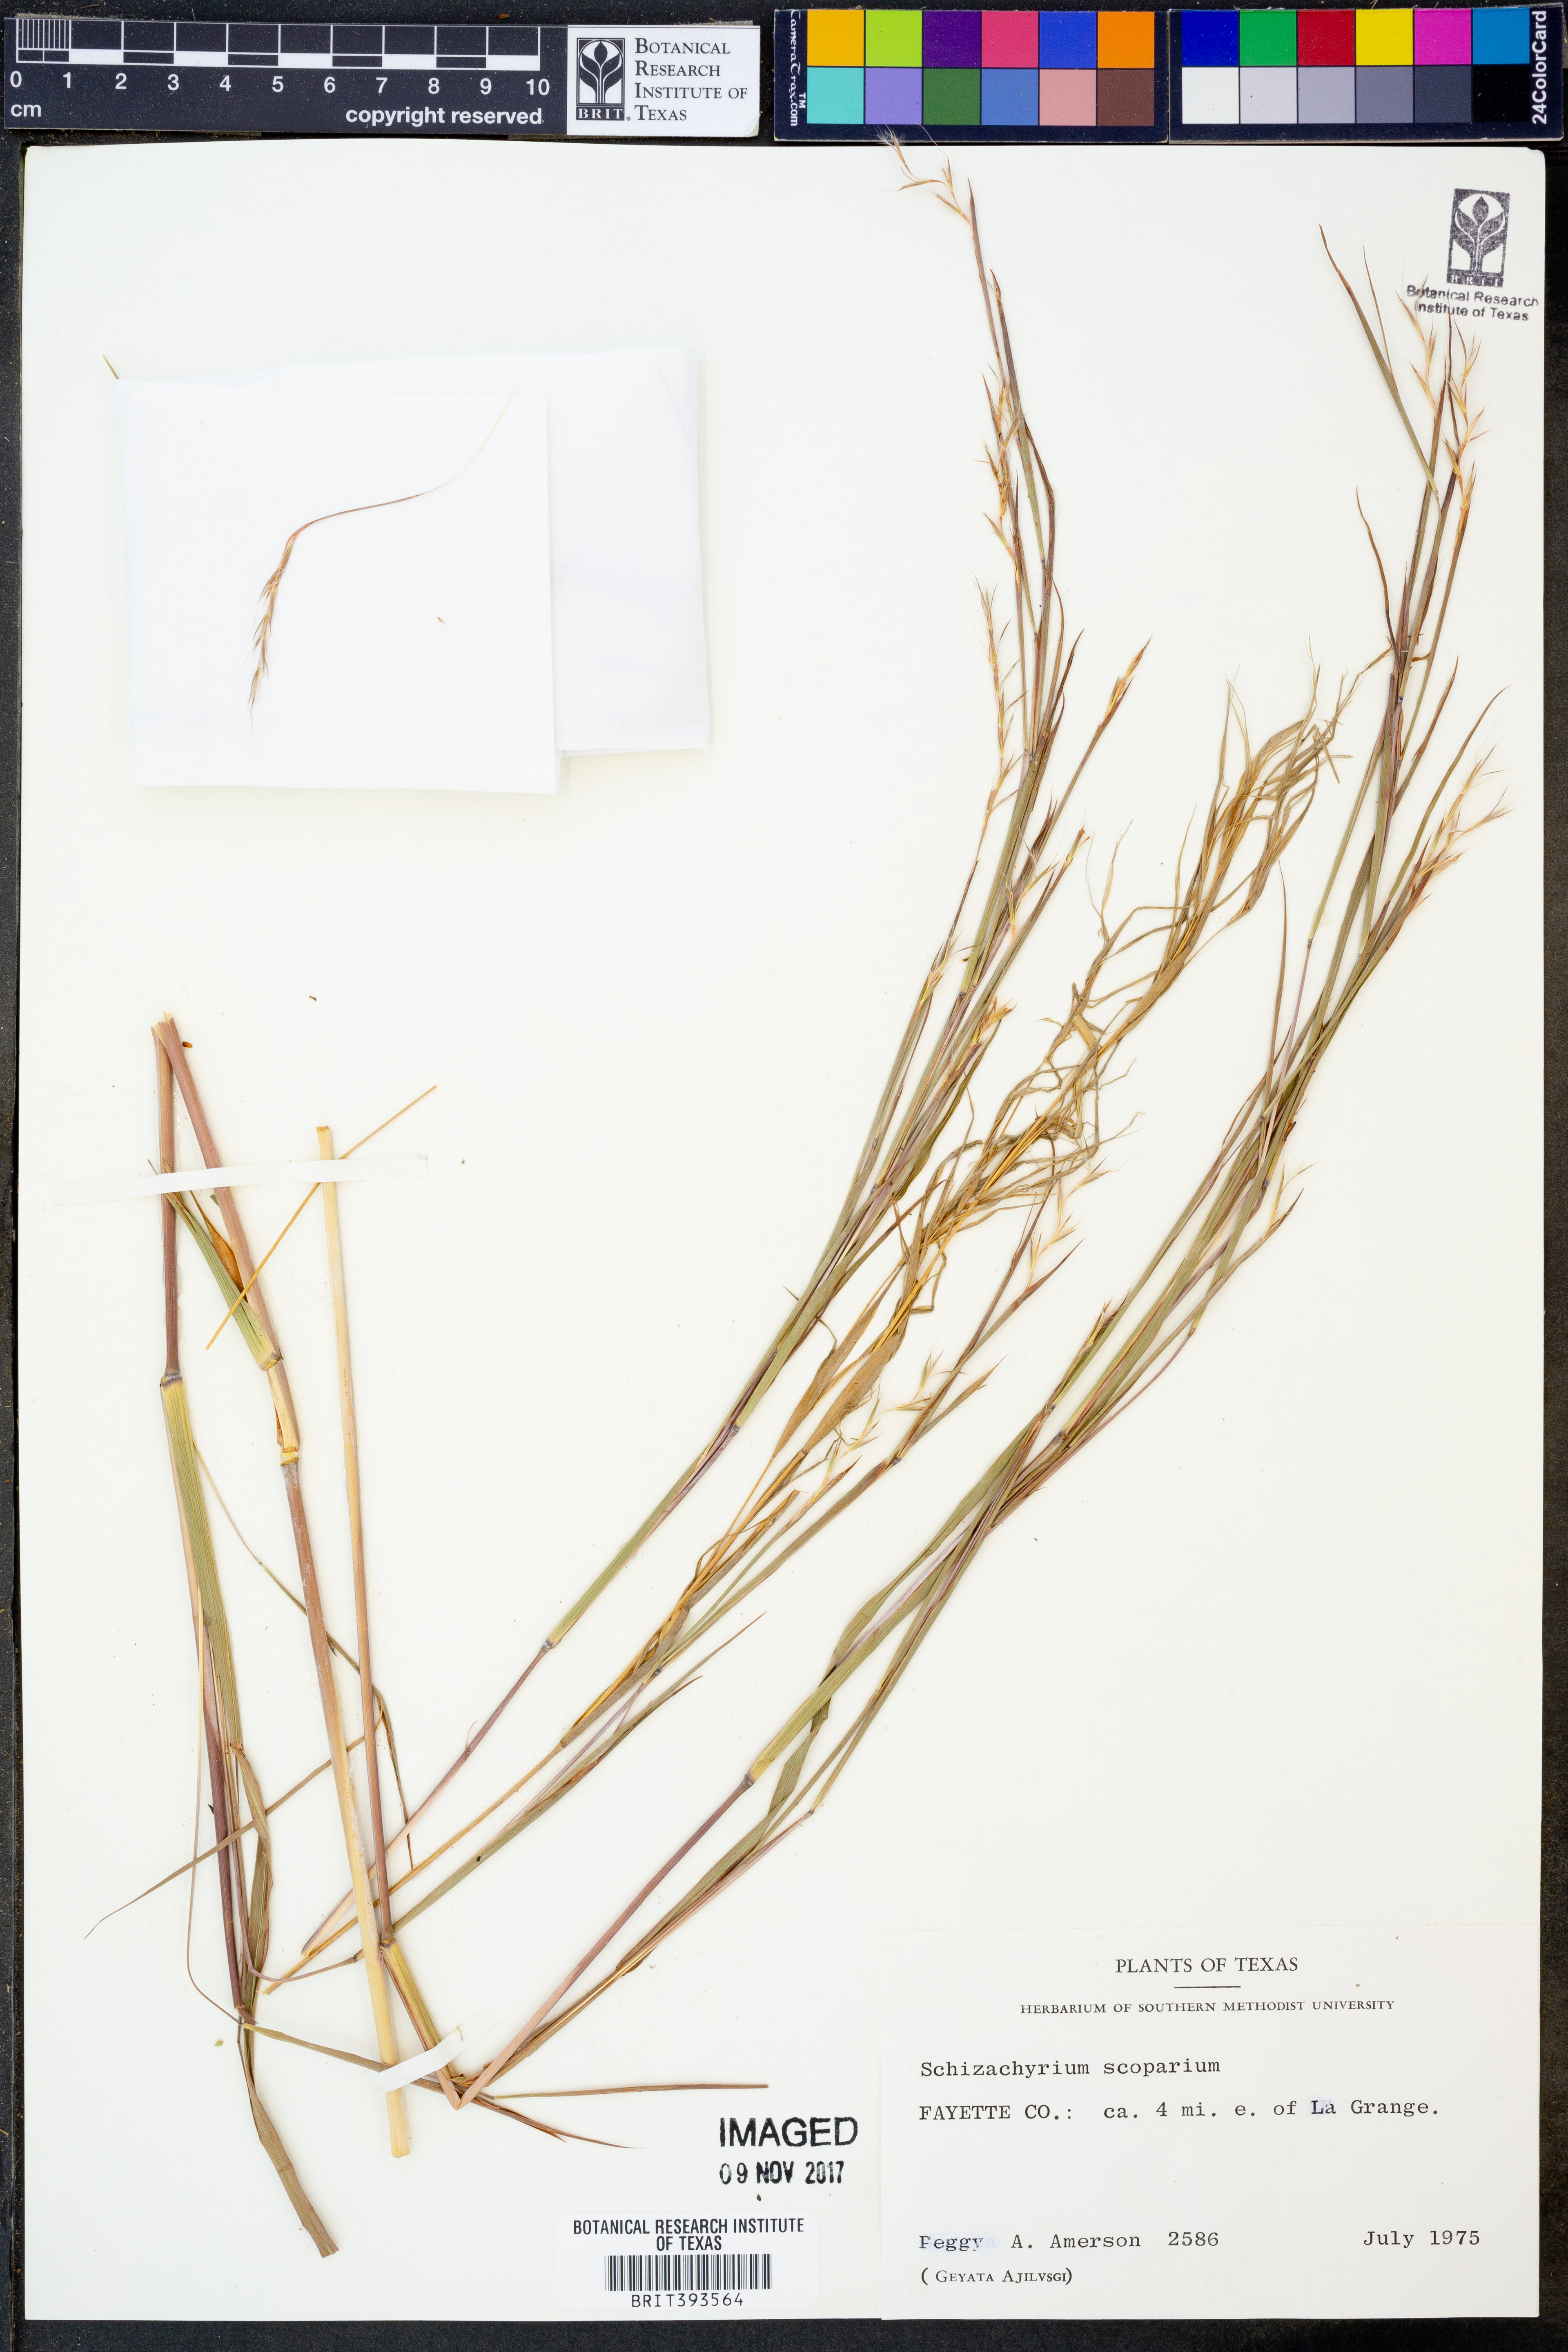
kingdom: Plantae
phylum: Tracheophyta
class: Liliopsida
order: Poales
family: Poaceae
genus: Schizachyrium
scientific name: Schizachyrium scoparium
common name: Little bluestem
